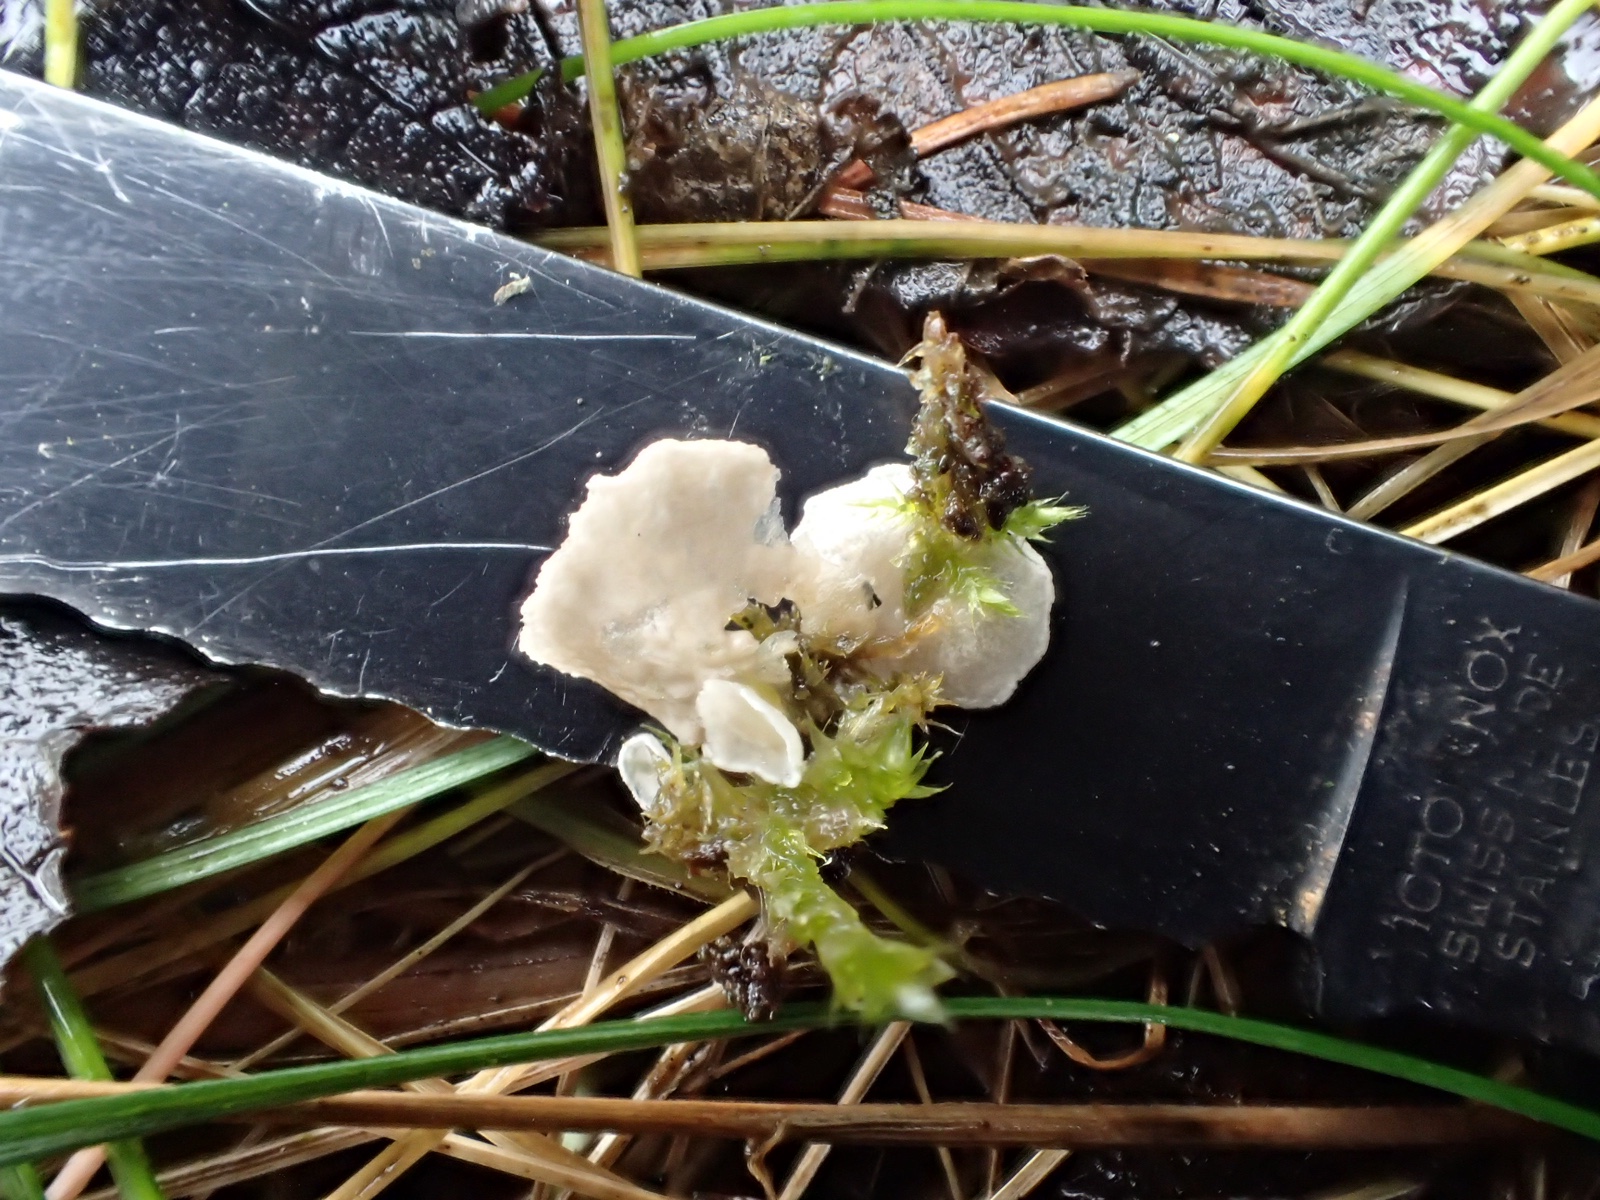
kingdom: Fungi
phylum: Basidiomycota
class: Agaricomycetes
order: Agaricales
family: Hygrophoraceae
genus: Arrhenia
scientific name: Arrhenia retiruga
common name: lille fontænehat
